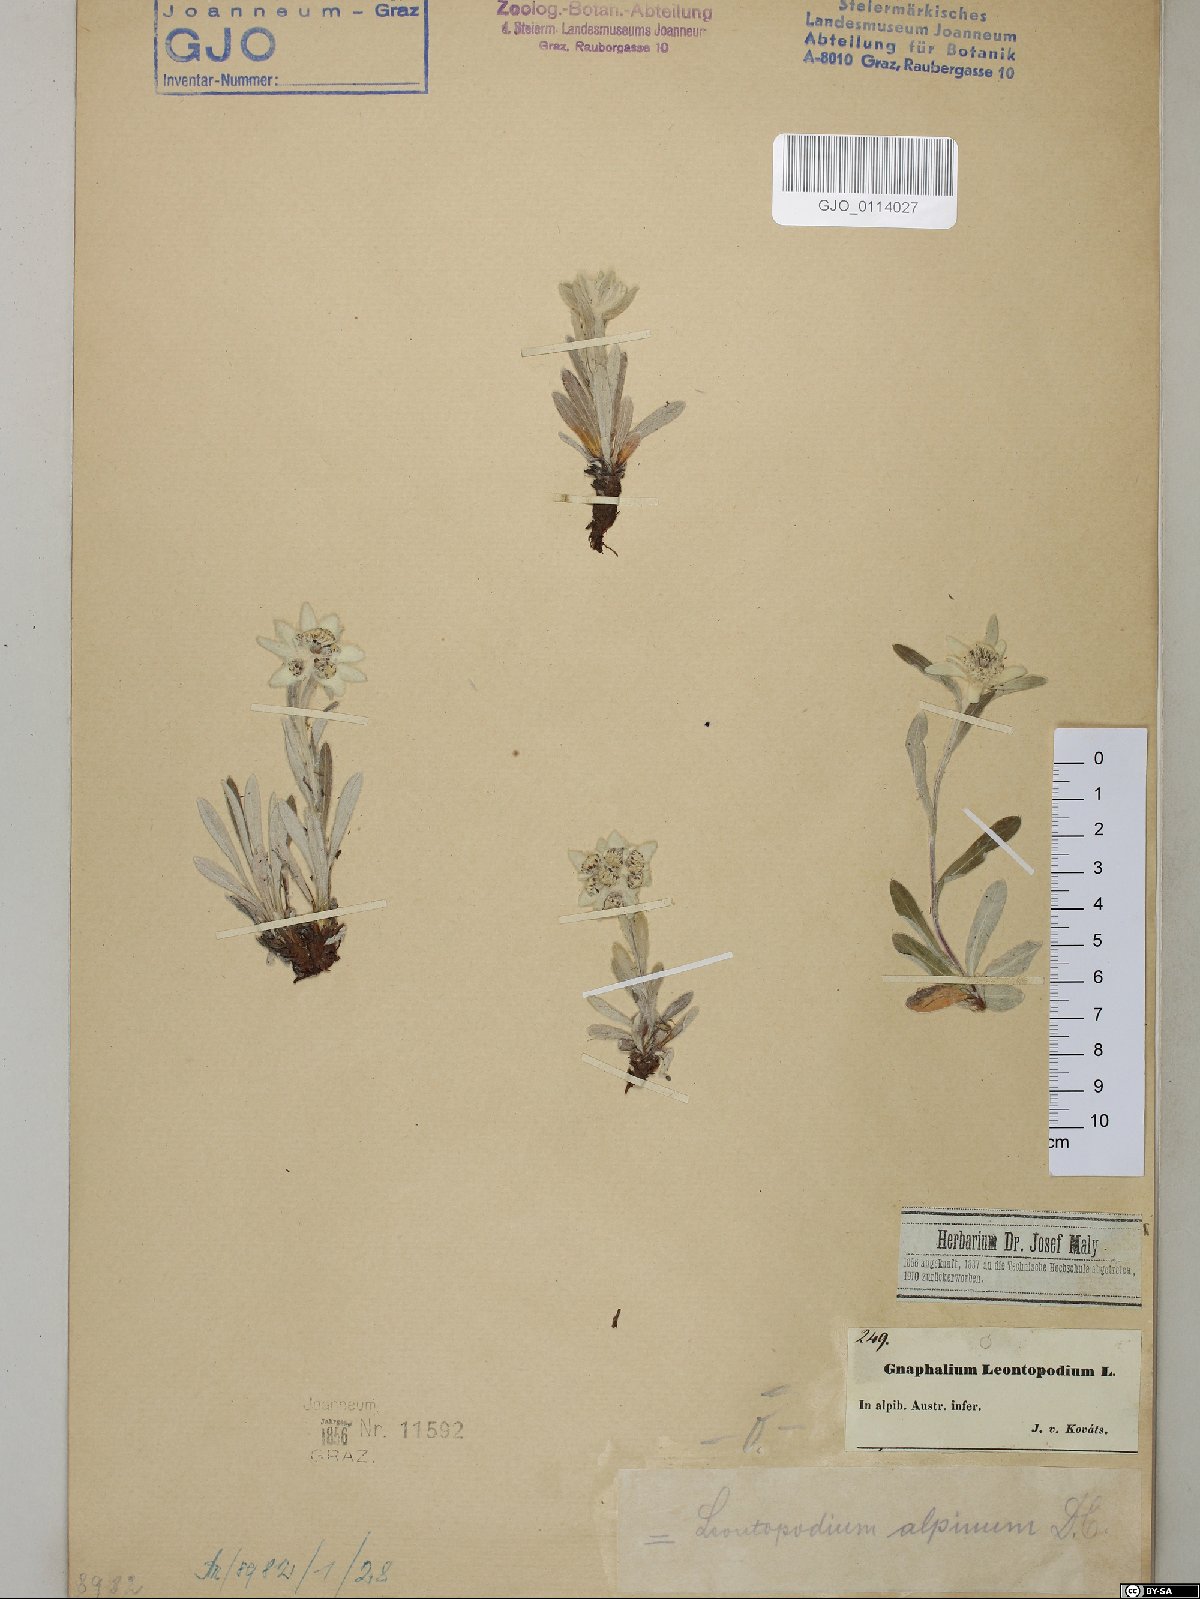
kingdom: Plantae
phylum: Tracheophyta
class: Magnoliopsida
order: Asterales
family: Asteraceae
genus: Leontopodium
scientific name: Leontopodium nivale
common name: Edelweiss
